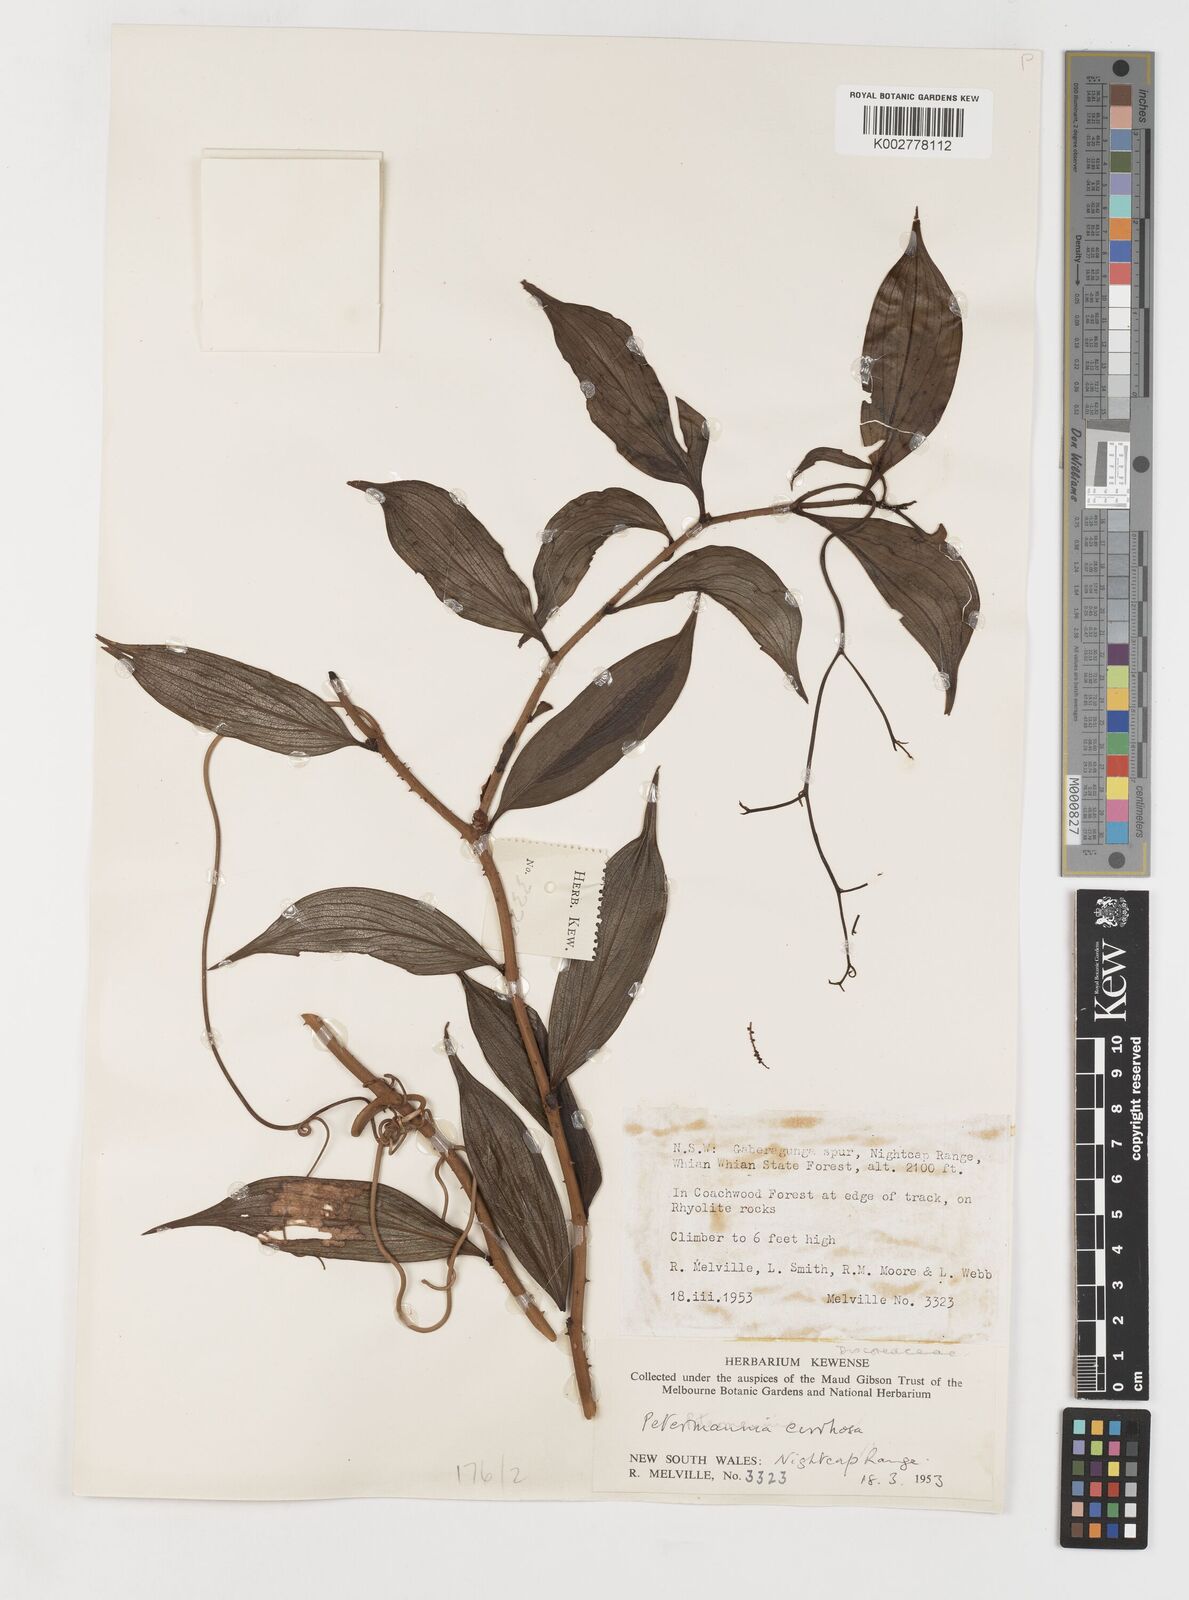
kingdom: Plantae
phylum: Tracheophyta
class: Liliopsida
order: Liliales
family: Petermanniaceae
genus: Petermannia
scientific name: Petermannia cirrosa
